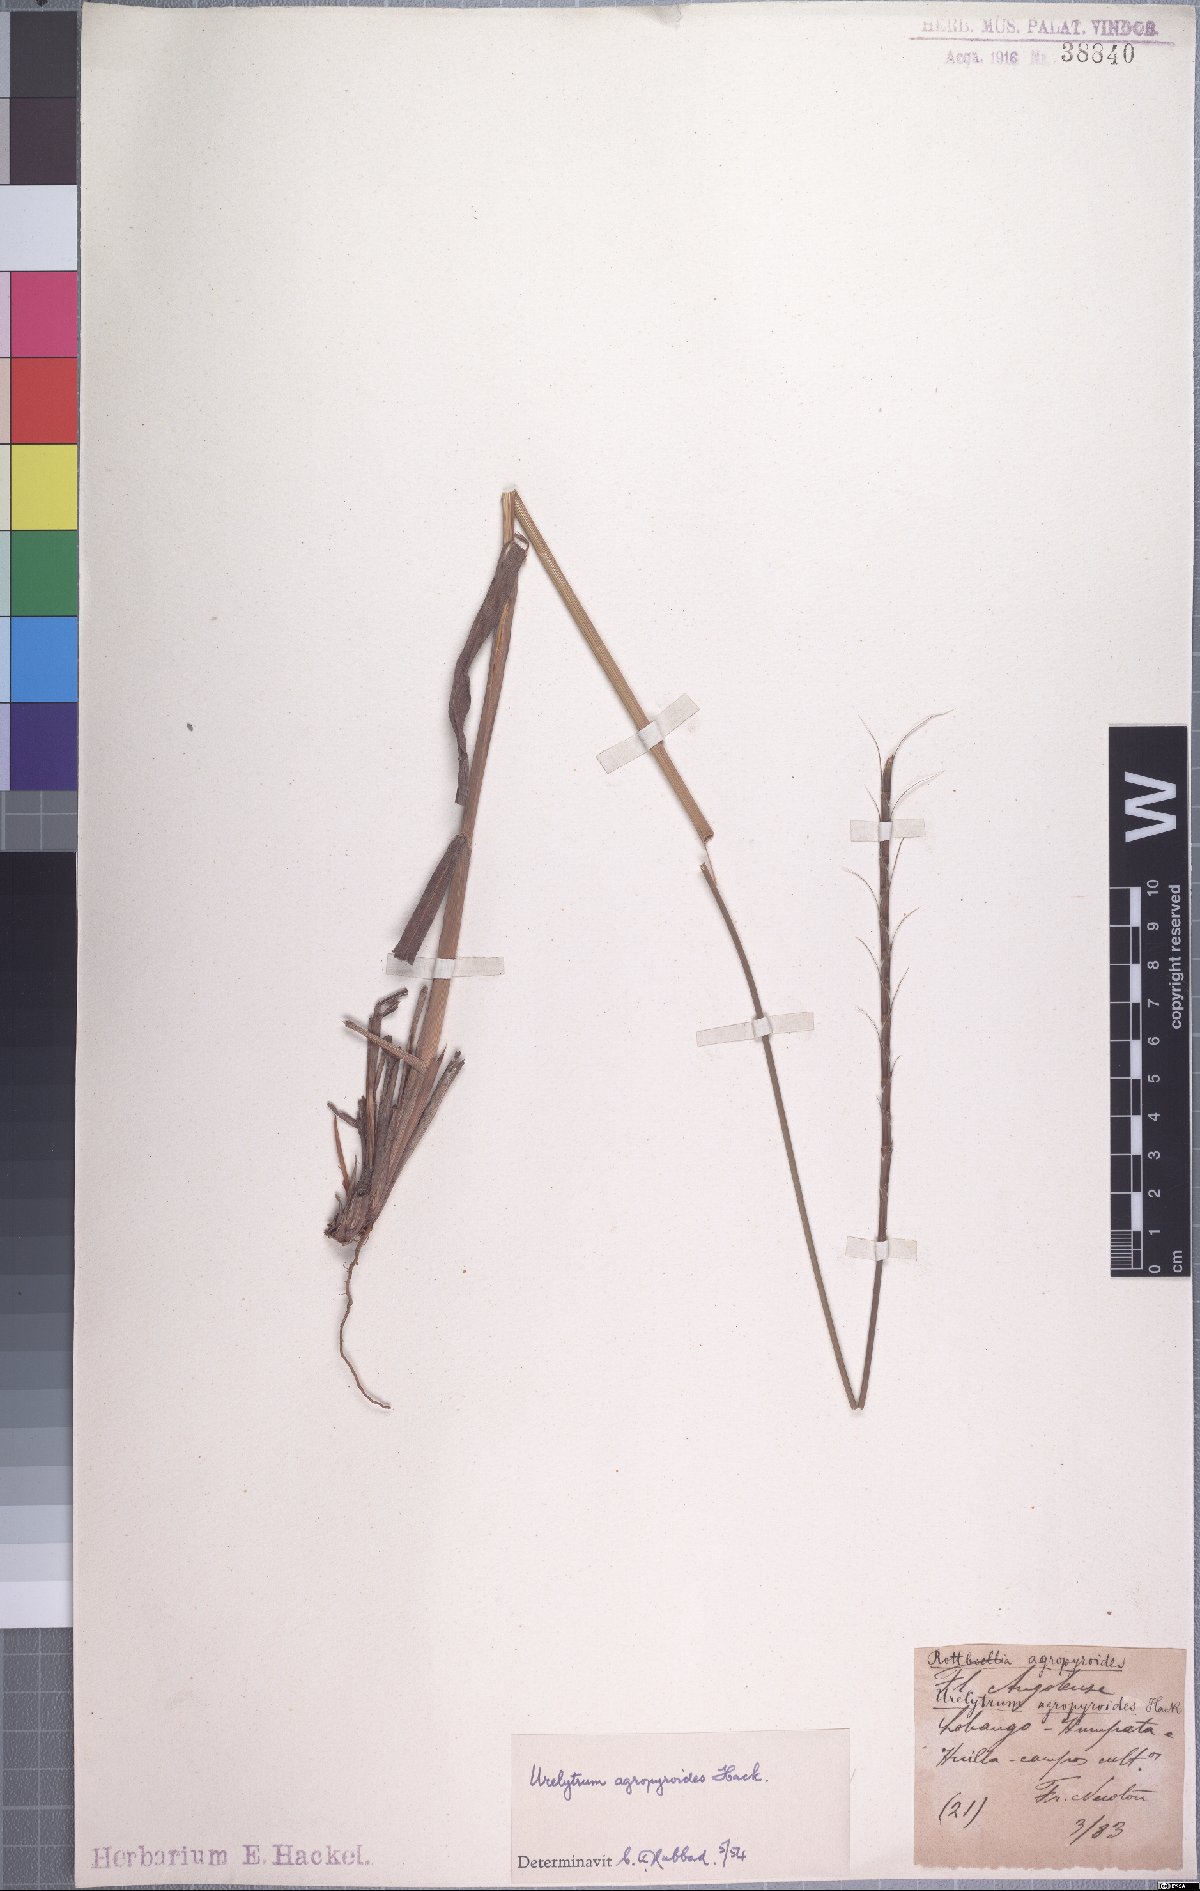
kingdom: Plantae
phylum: Tracheophyta
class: Liliopsida
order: Poales
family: Poaceae
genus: Urelytrum
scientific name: Urelytrum agropyroides
